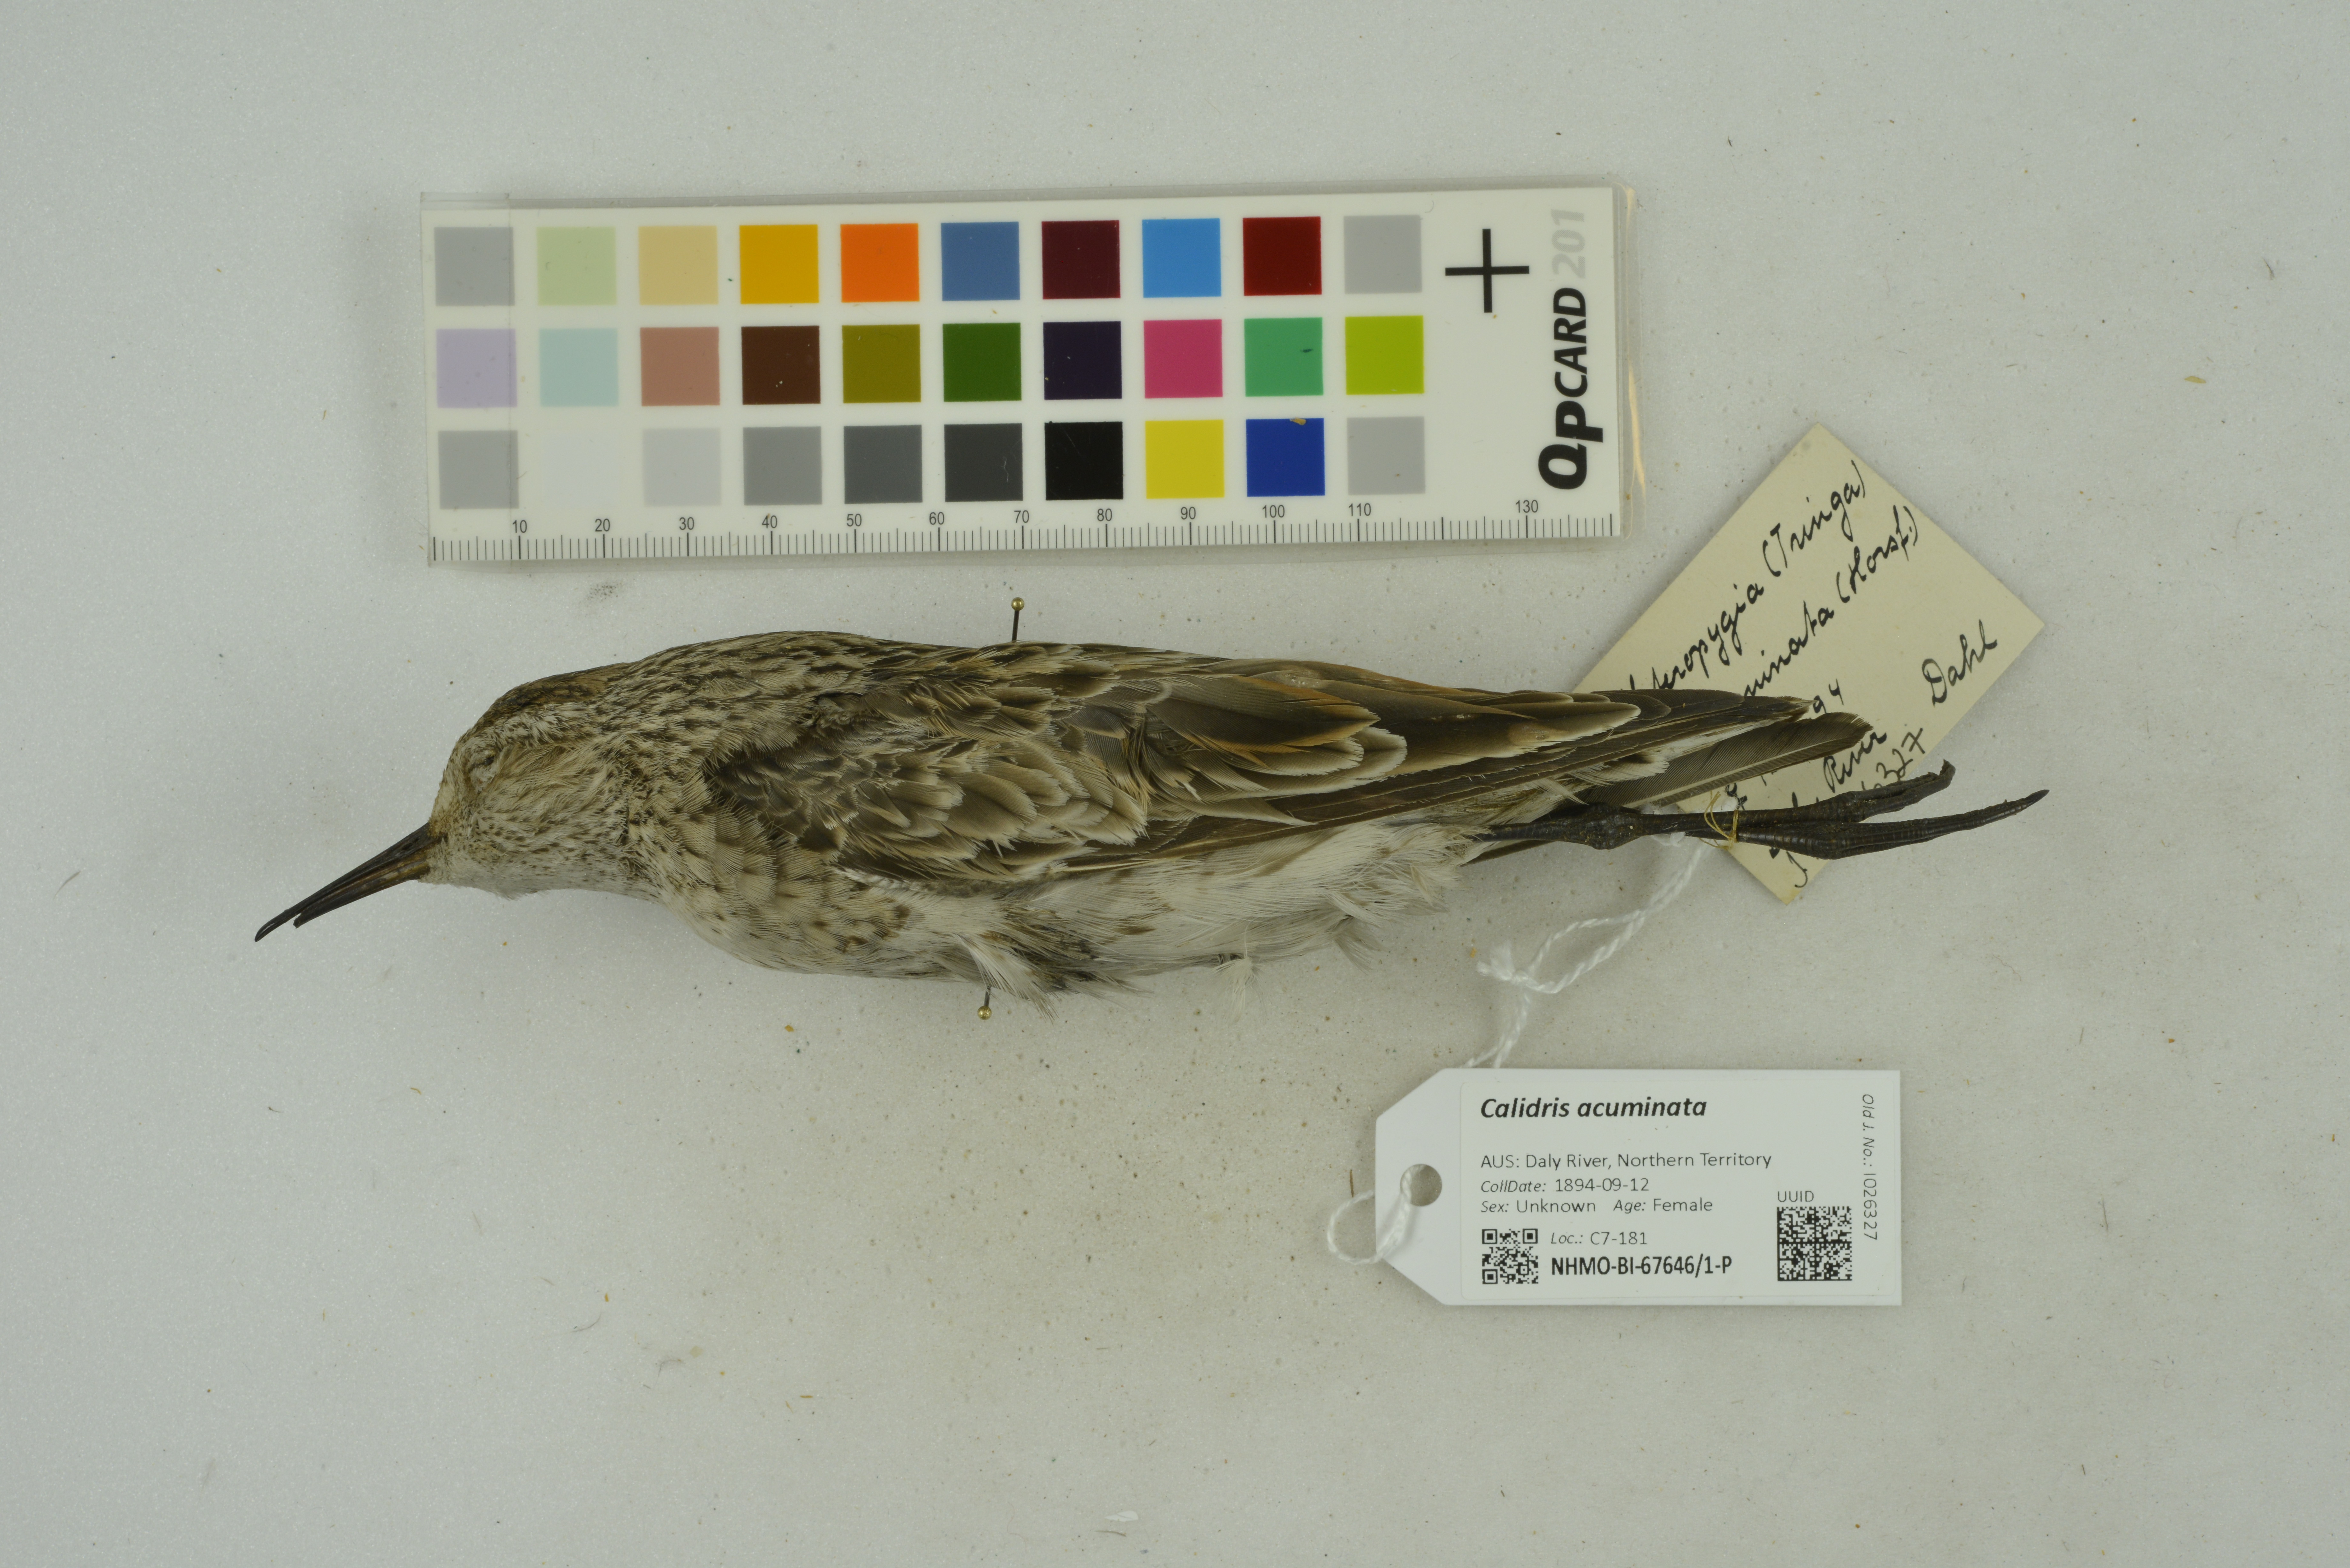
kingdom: Animalia
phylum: Chordata
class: Aves
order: Charadriiformes
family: Scolopacidae
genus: Calidris
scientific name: Calidris acuminata
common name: Sharp-tailed sandpiper
